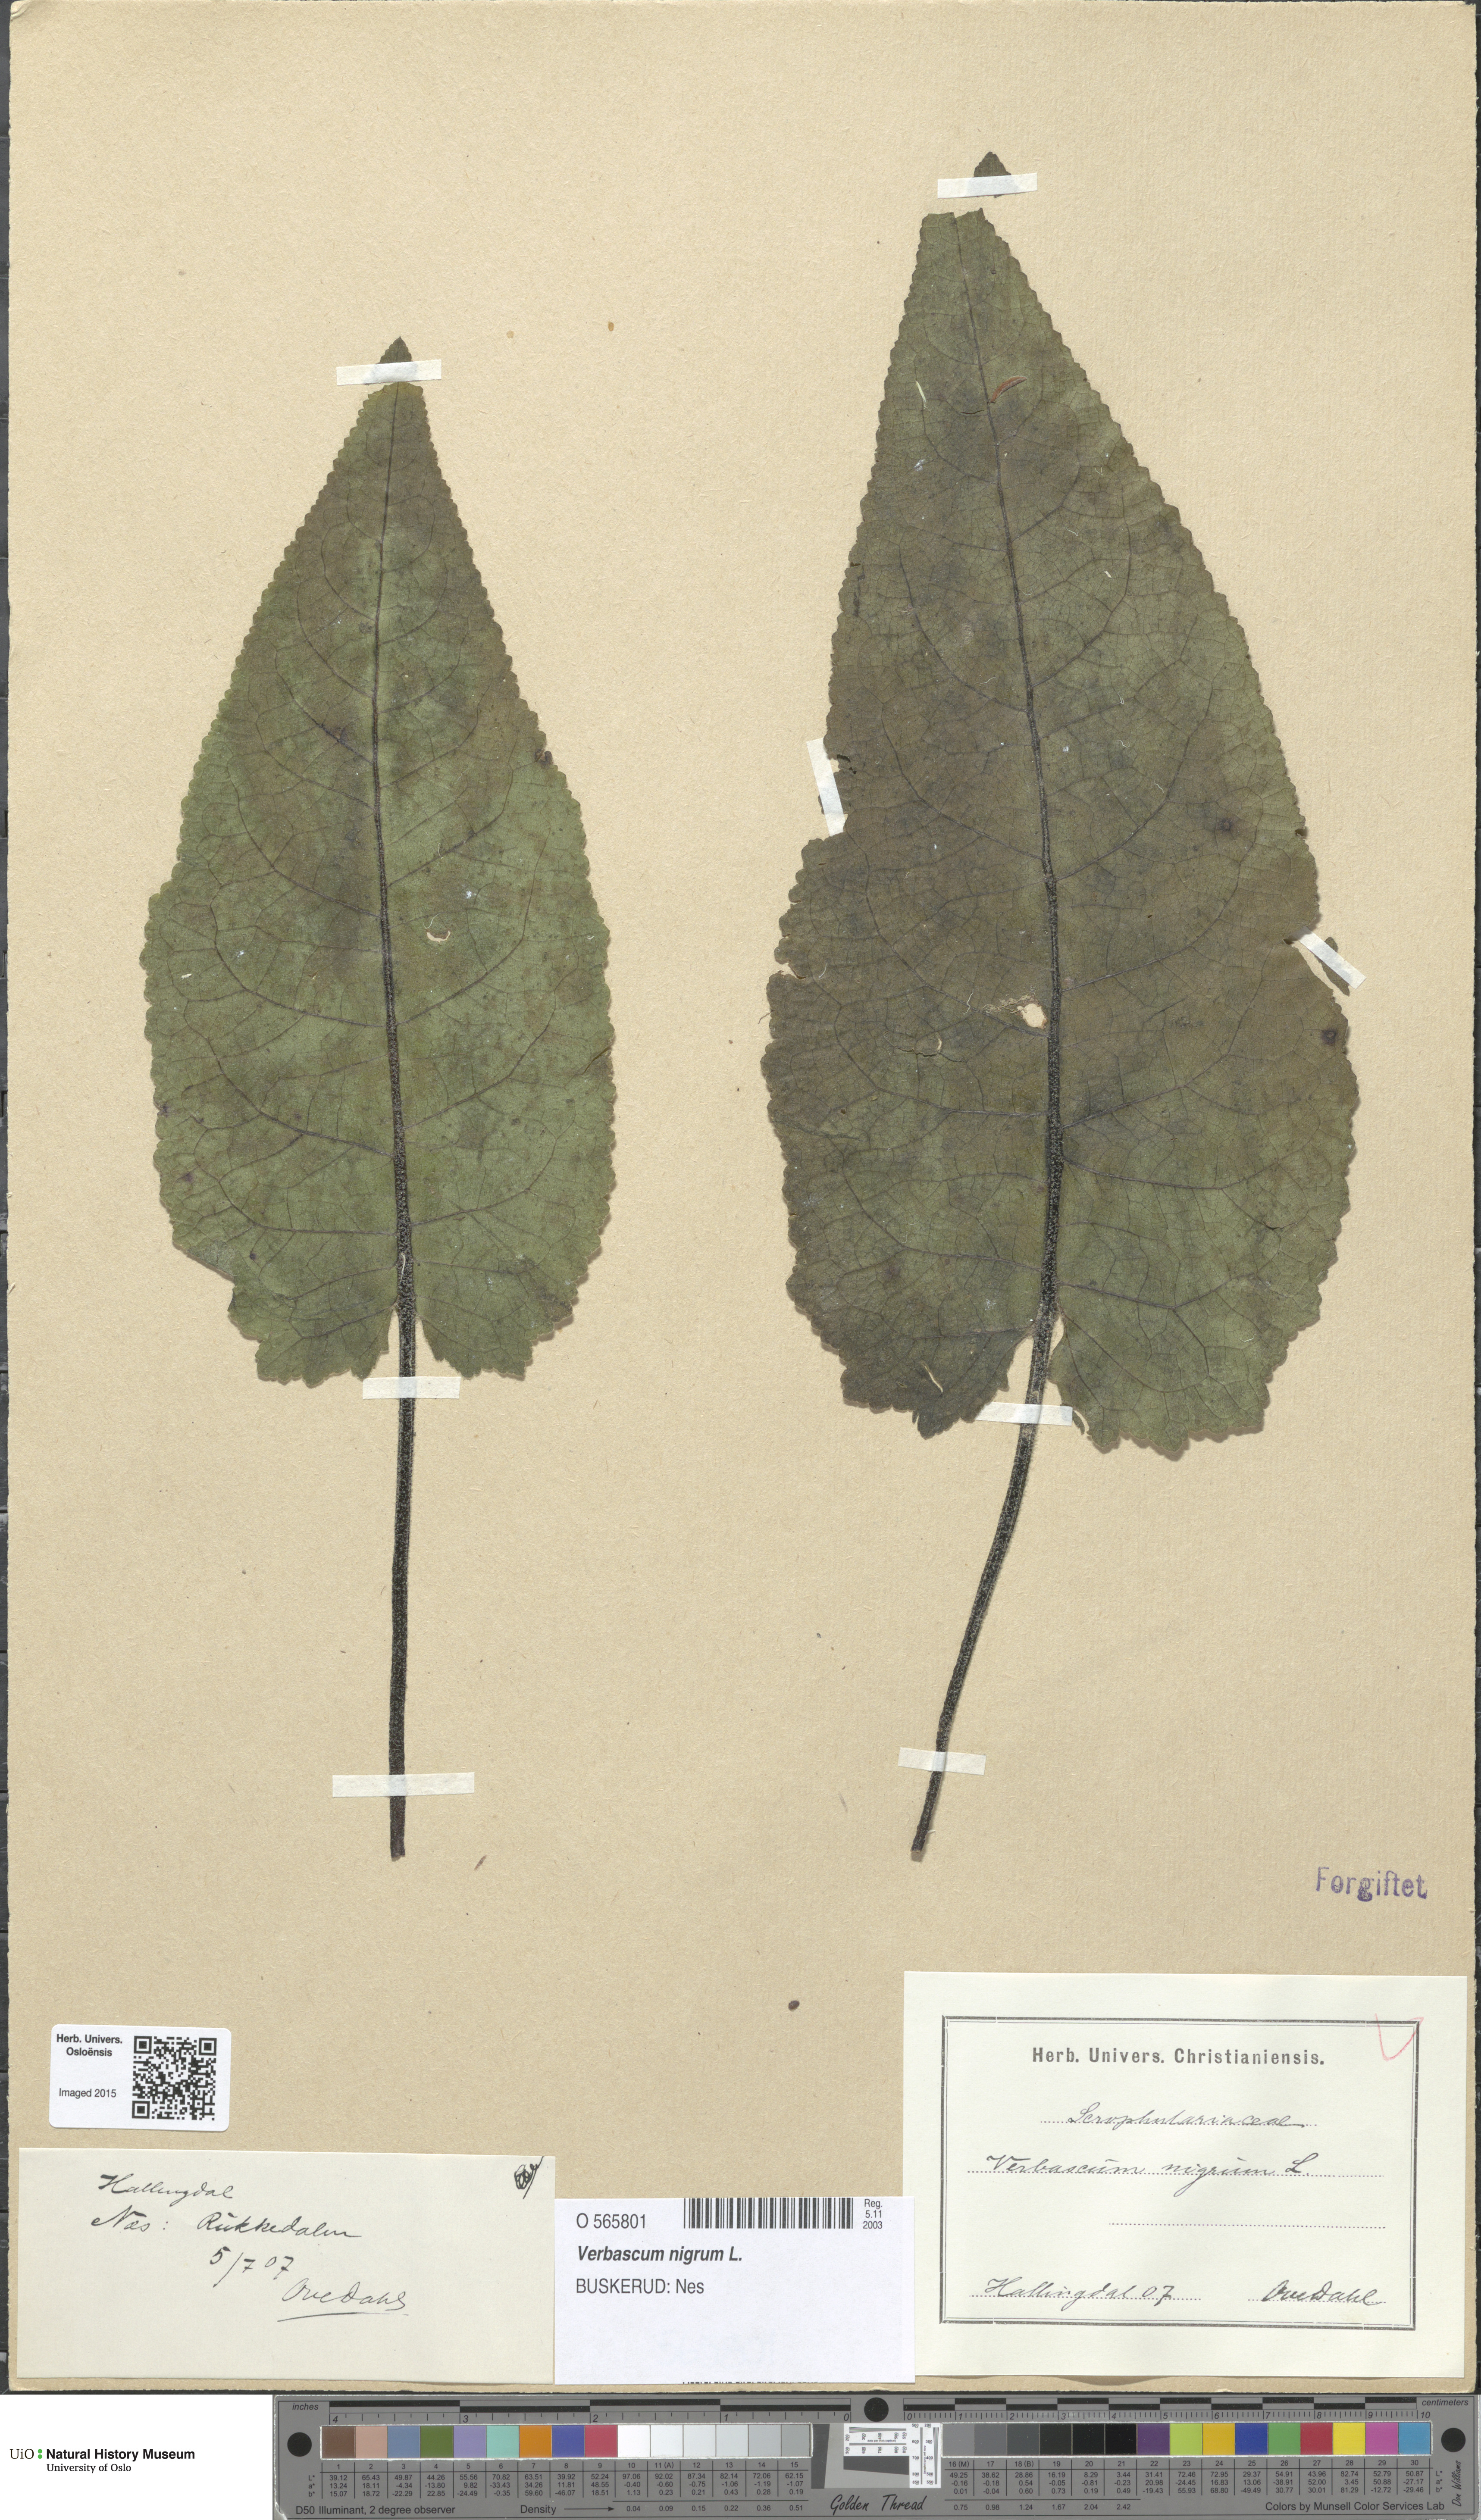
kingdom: Plantae
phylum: Tracheophyta
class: Magnoliopsida
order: Lamiales
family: Scrophulariaceae
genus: Verbascum
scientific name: Verbascum nigrum
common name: Dark mullein
